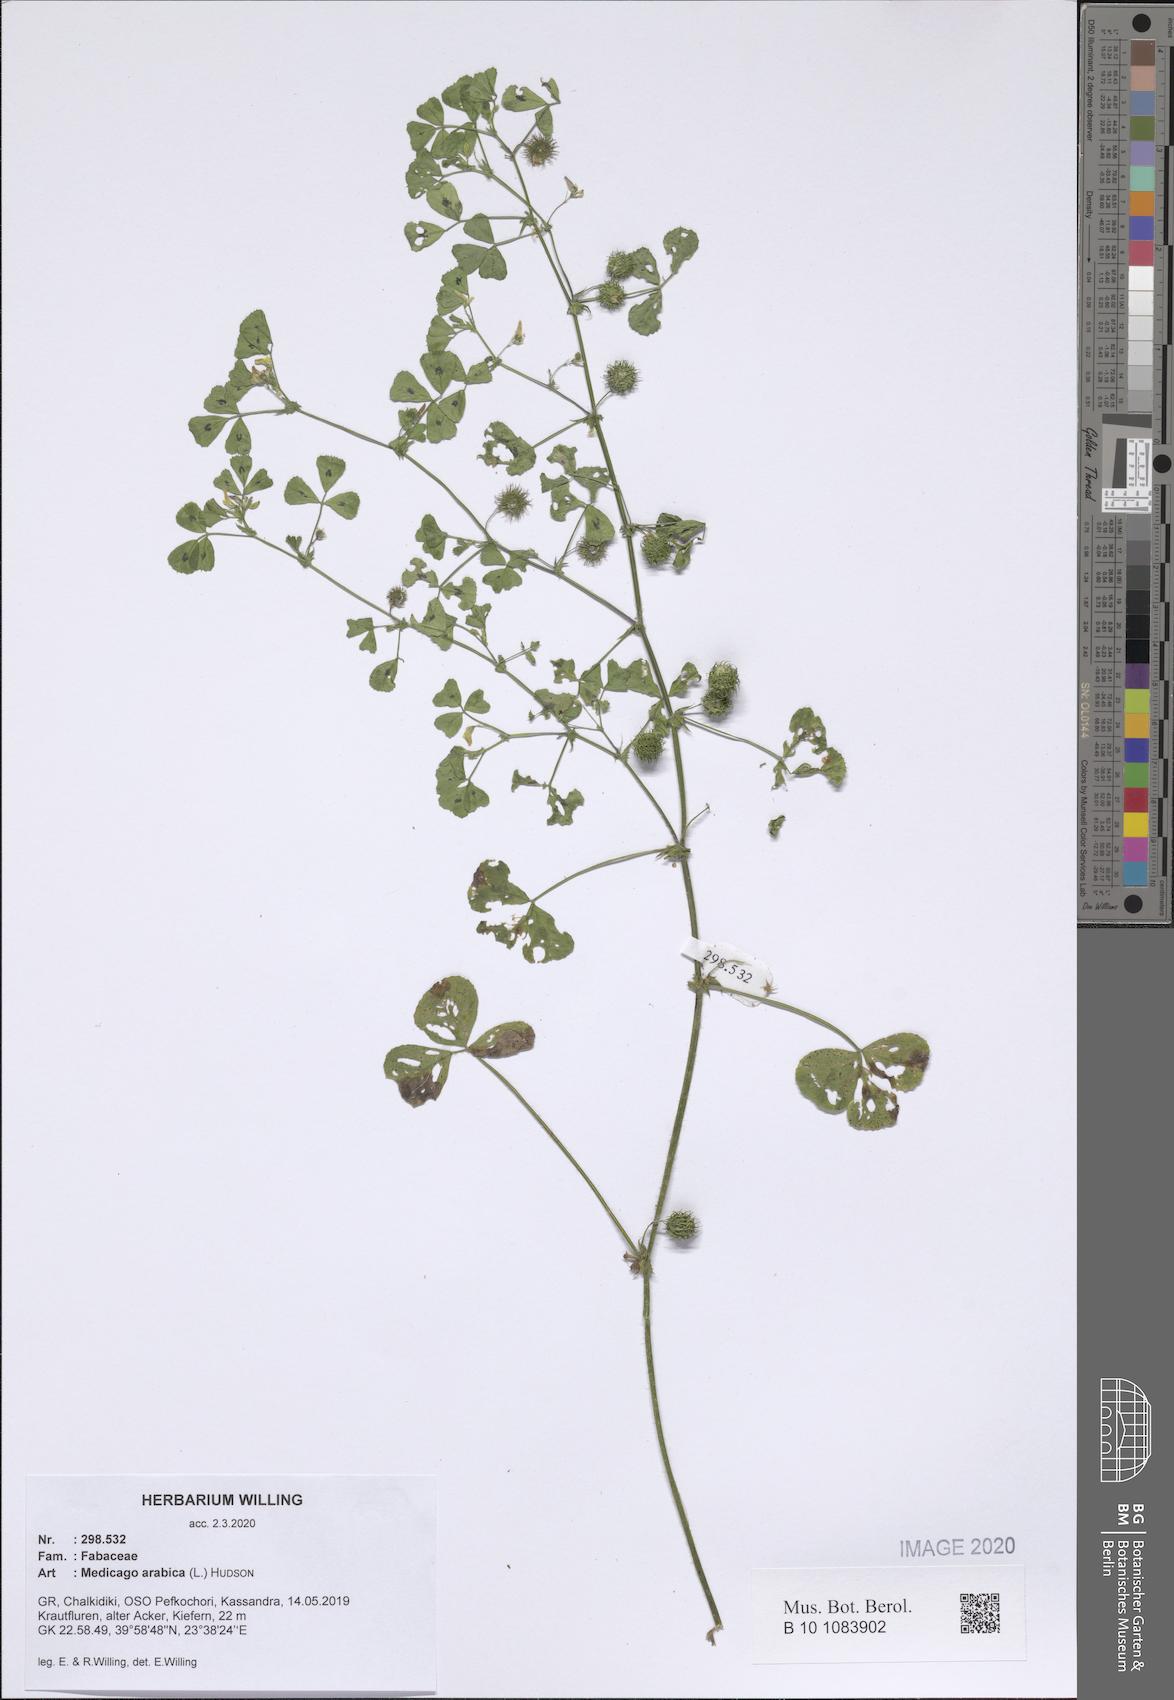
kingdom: Plantae
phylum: Tracheophyta
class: Magnoliopsida
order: Fabales
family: Fabaceae
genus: Medicago
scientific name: Medicago arabica
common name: Spotted medick
